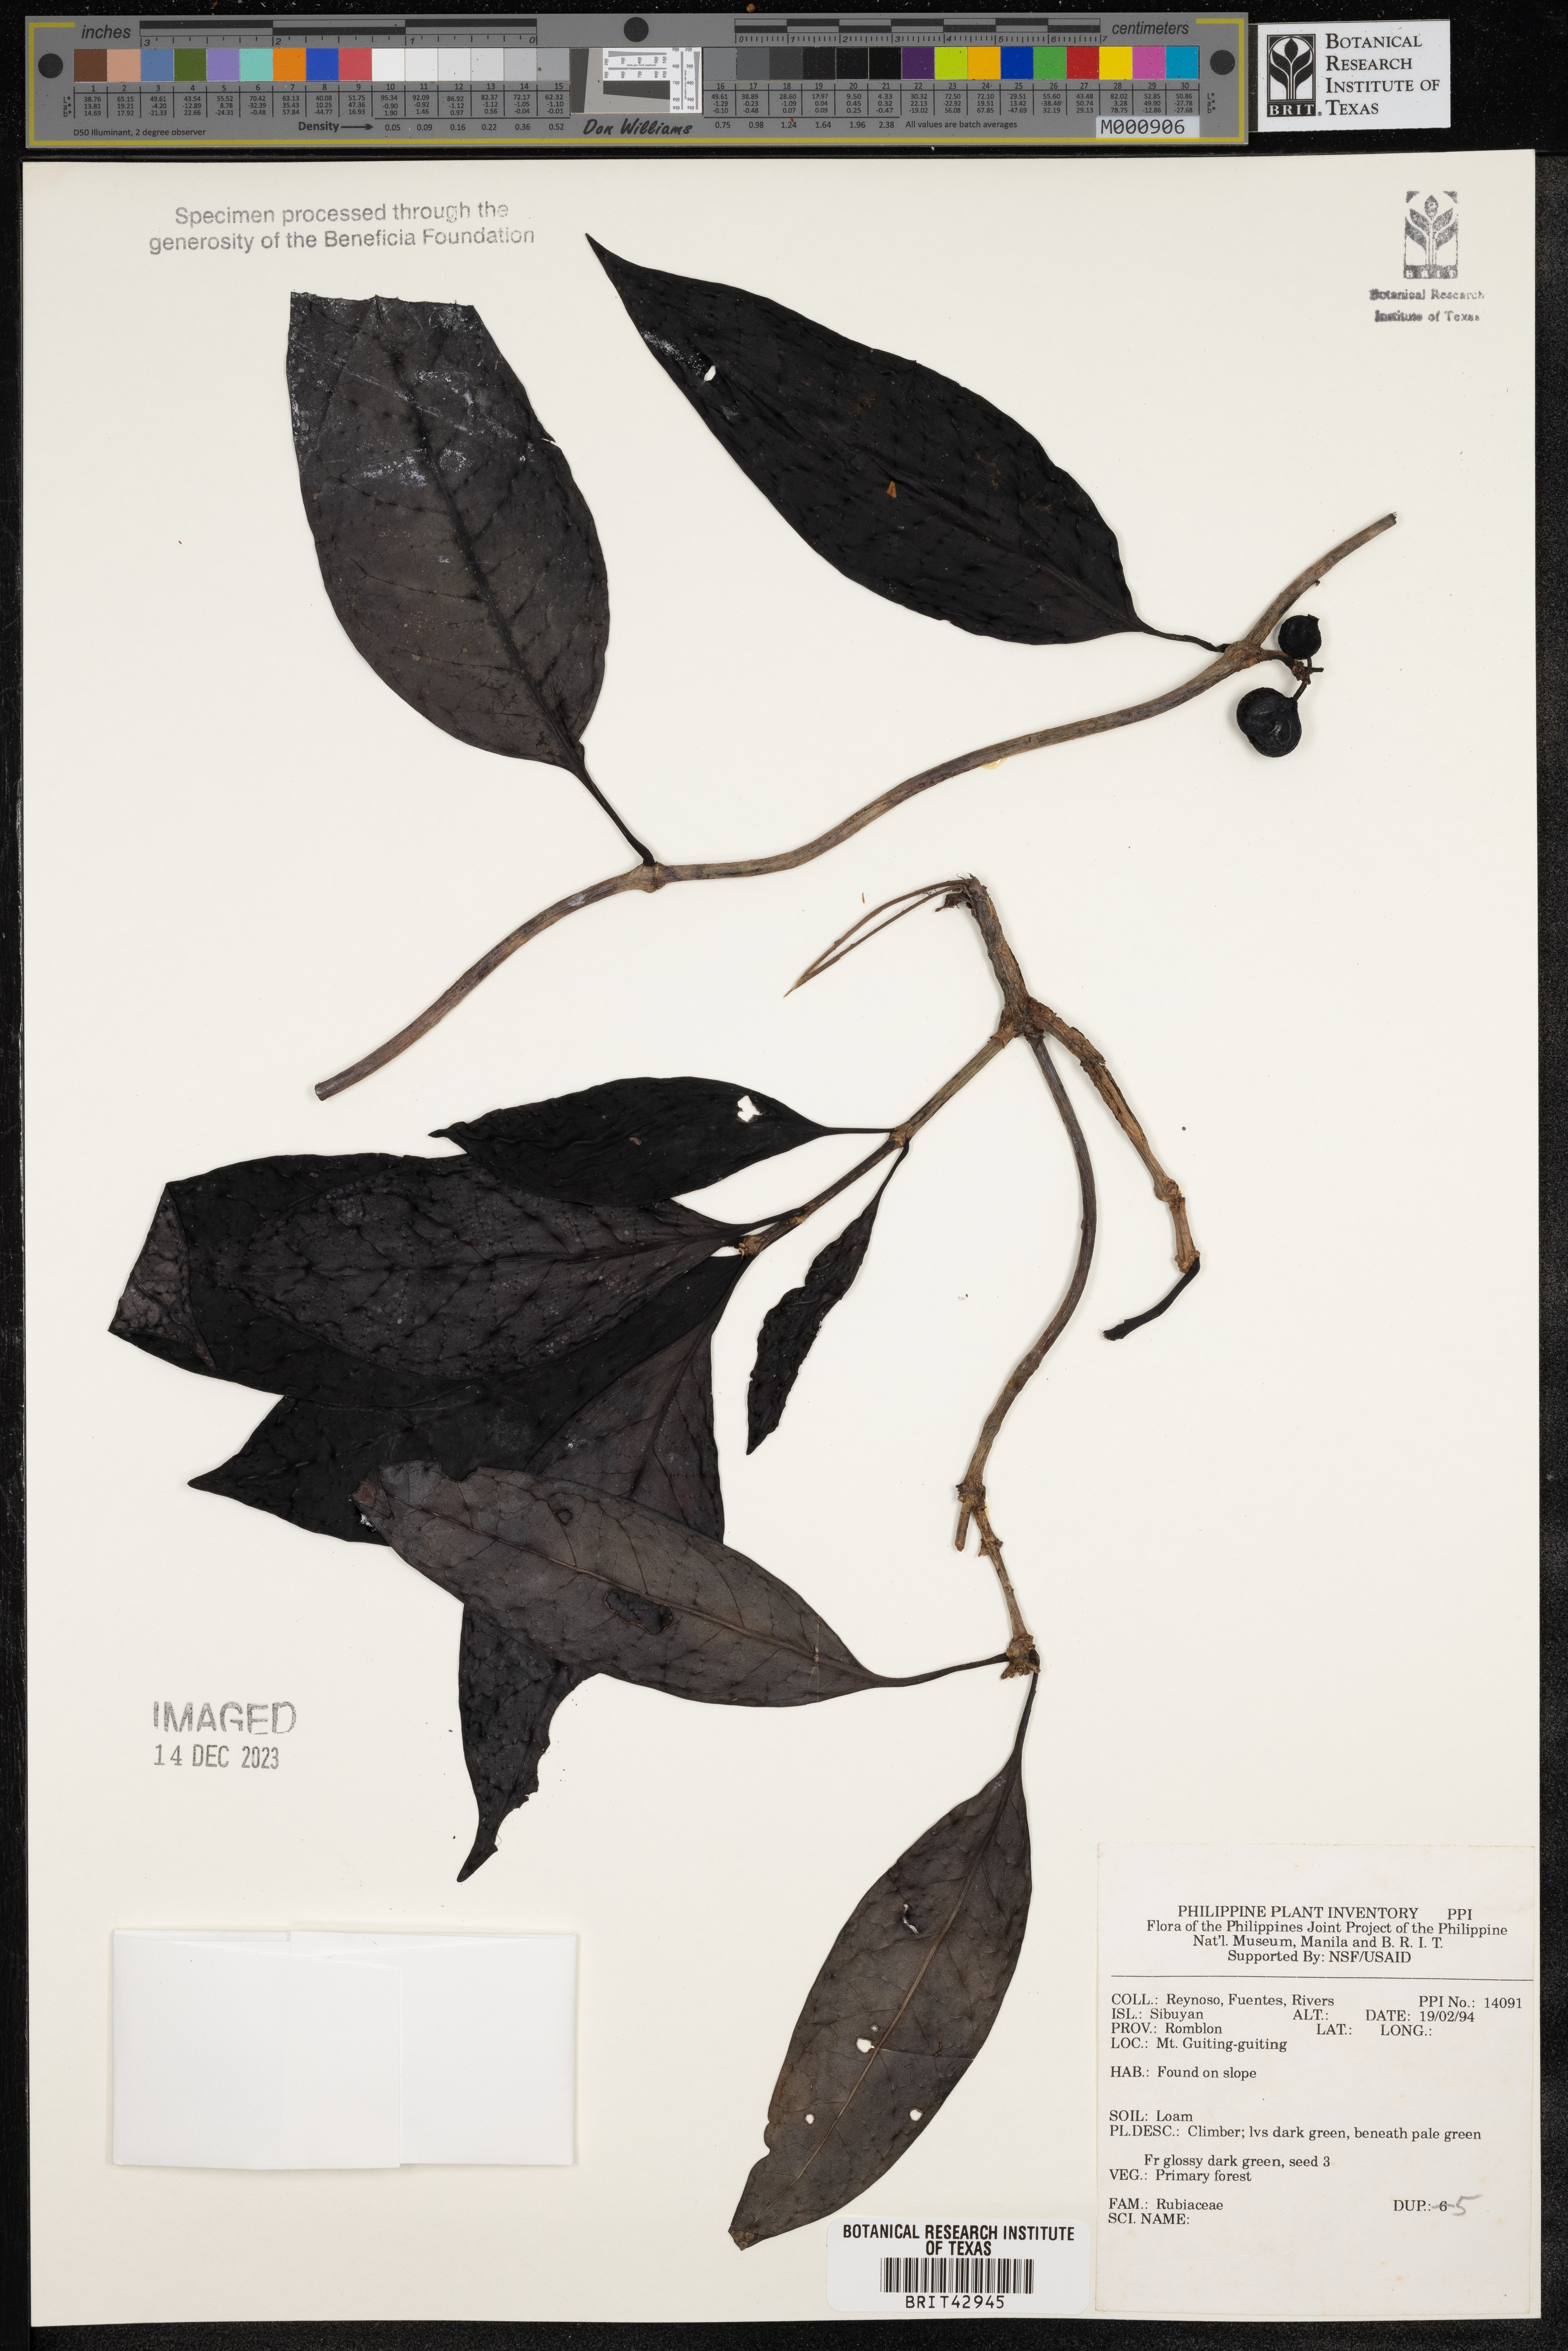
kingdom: Plantae
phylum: Tracheophyta
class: Magnoliopsida
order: Gentianales
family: Rubiaceae
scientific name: Rubiaceae
